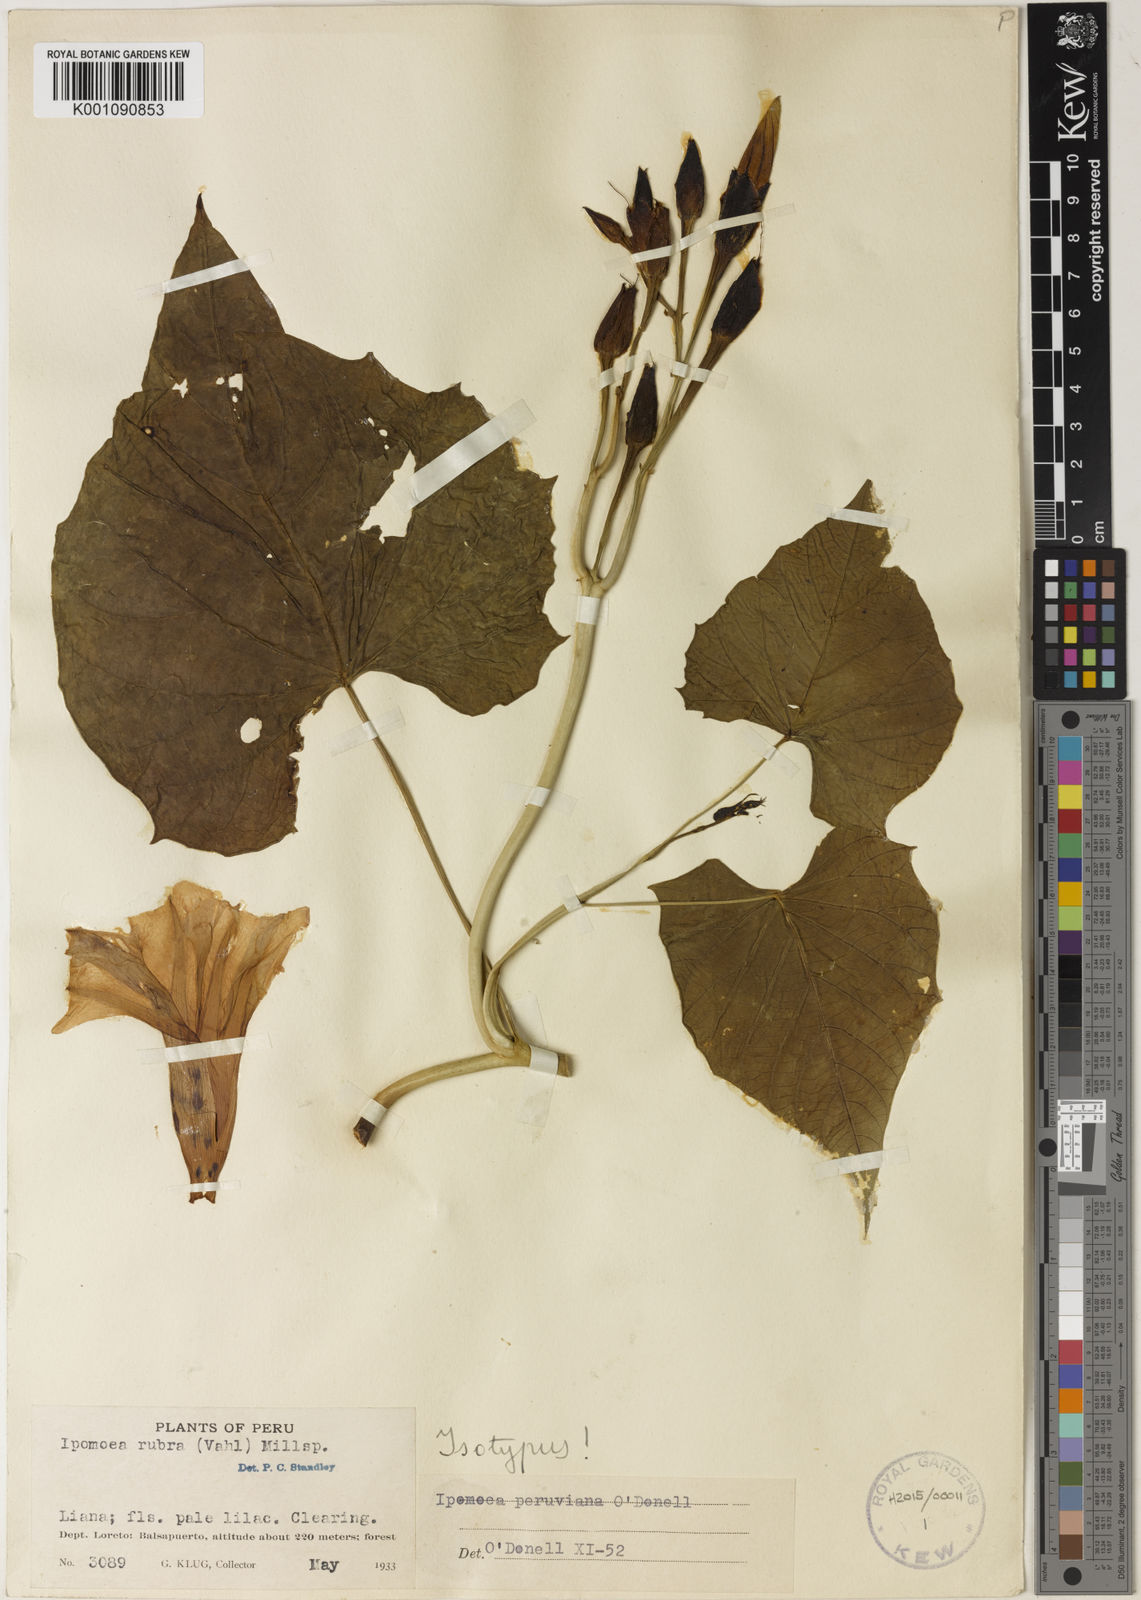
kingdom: Plantae
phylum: Tracheophyta
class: Magnoliopsida
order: Solanales
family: Convolvulaceae
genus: Ipomoea
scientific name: Ipomoea peruviana
